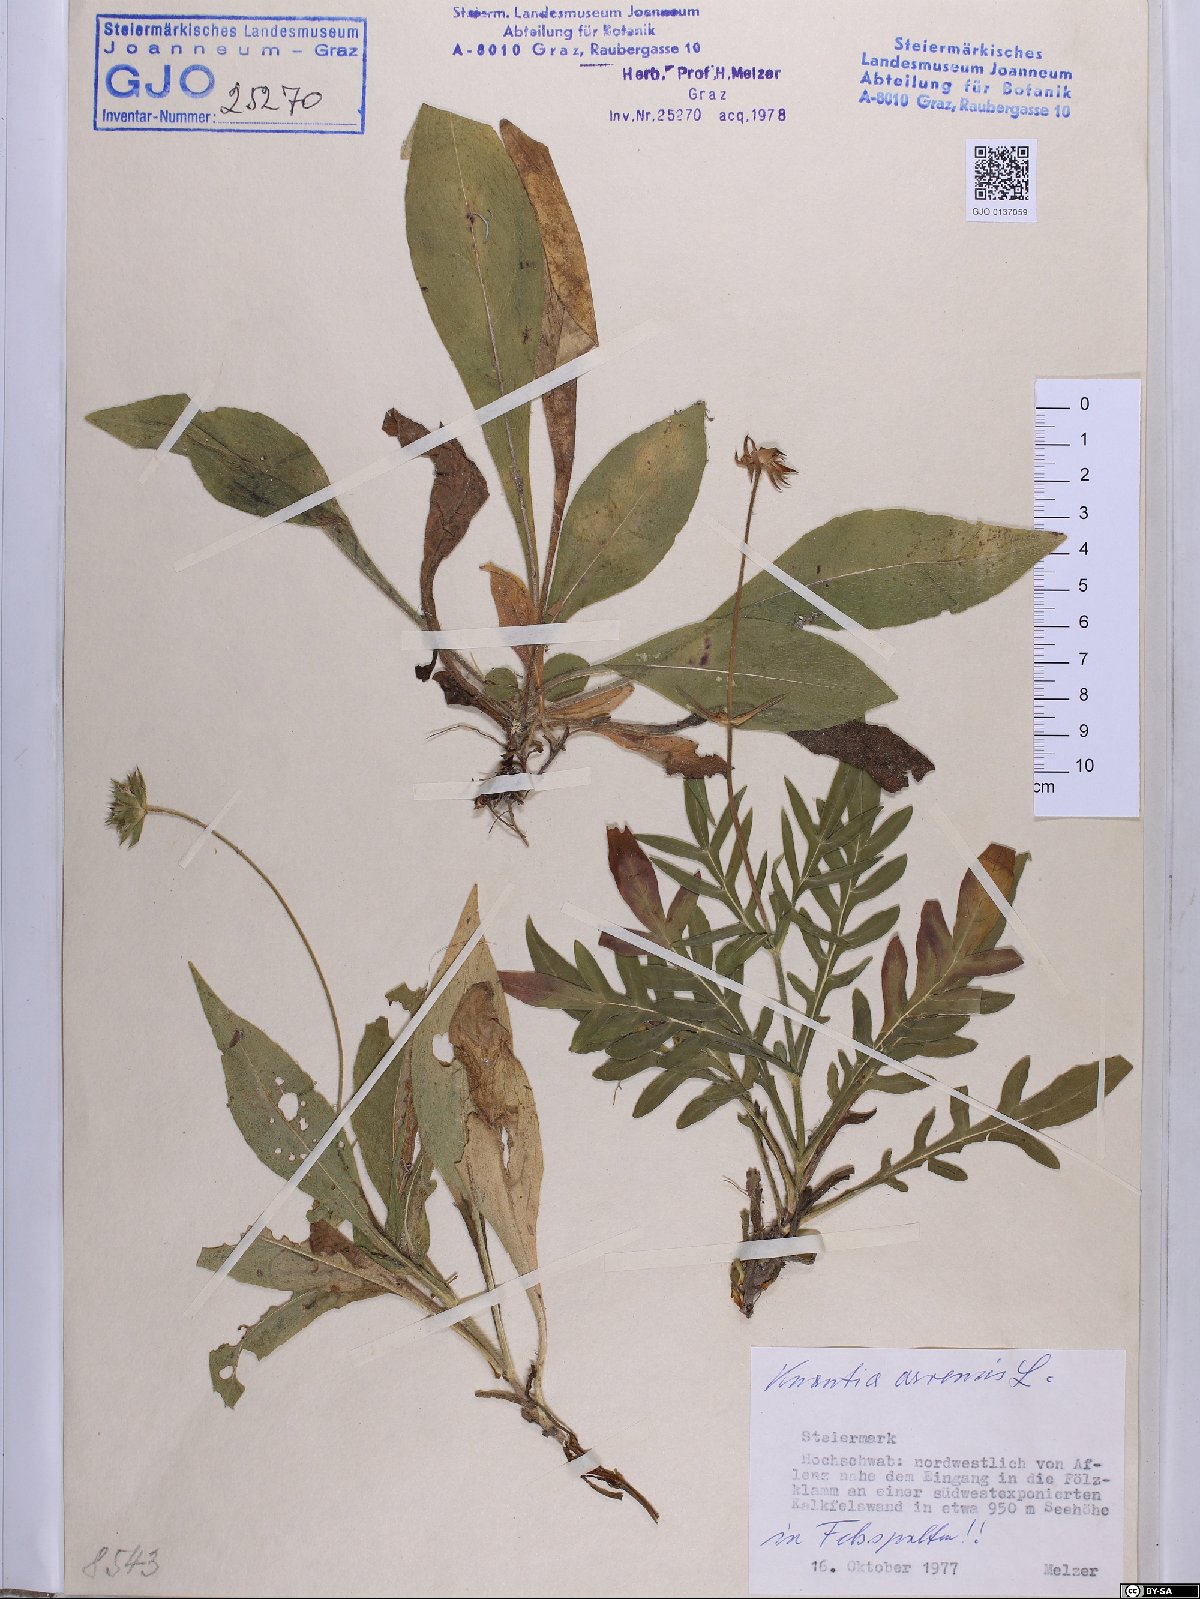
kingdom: Plantae
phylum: Tracheophyta
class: Magnoliopsida
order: Dipsacales
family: Caprifoliaceae
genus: Knautia
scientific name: Knautia arvensis
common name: Field scabiosa
